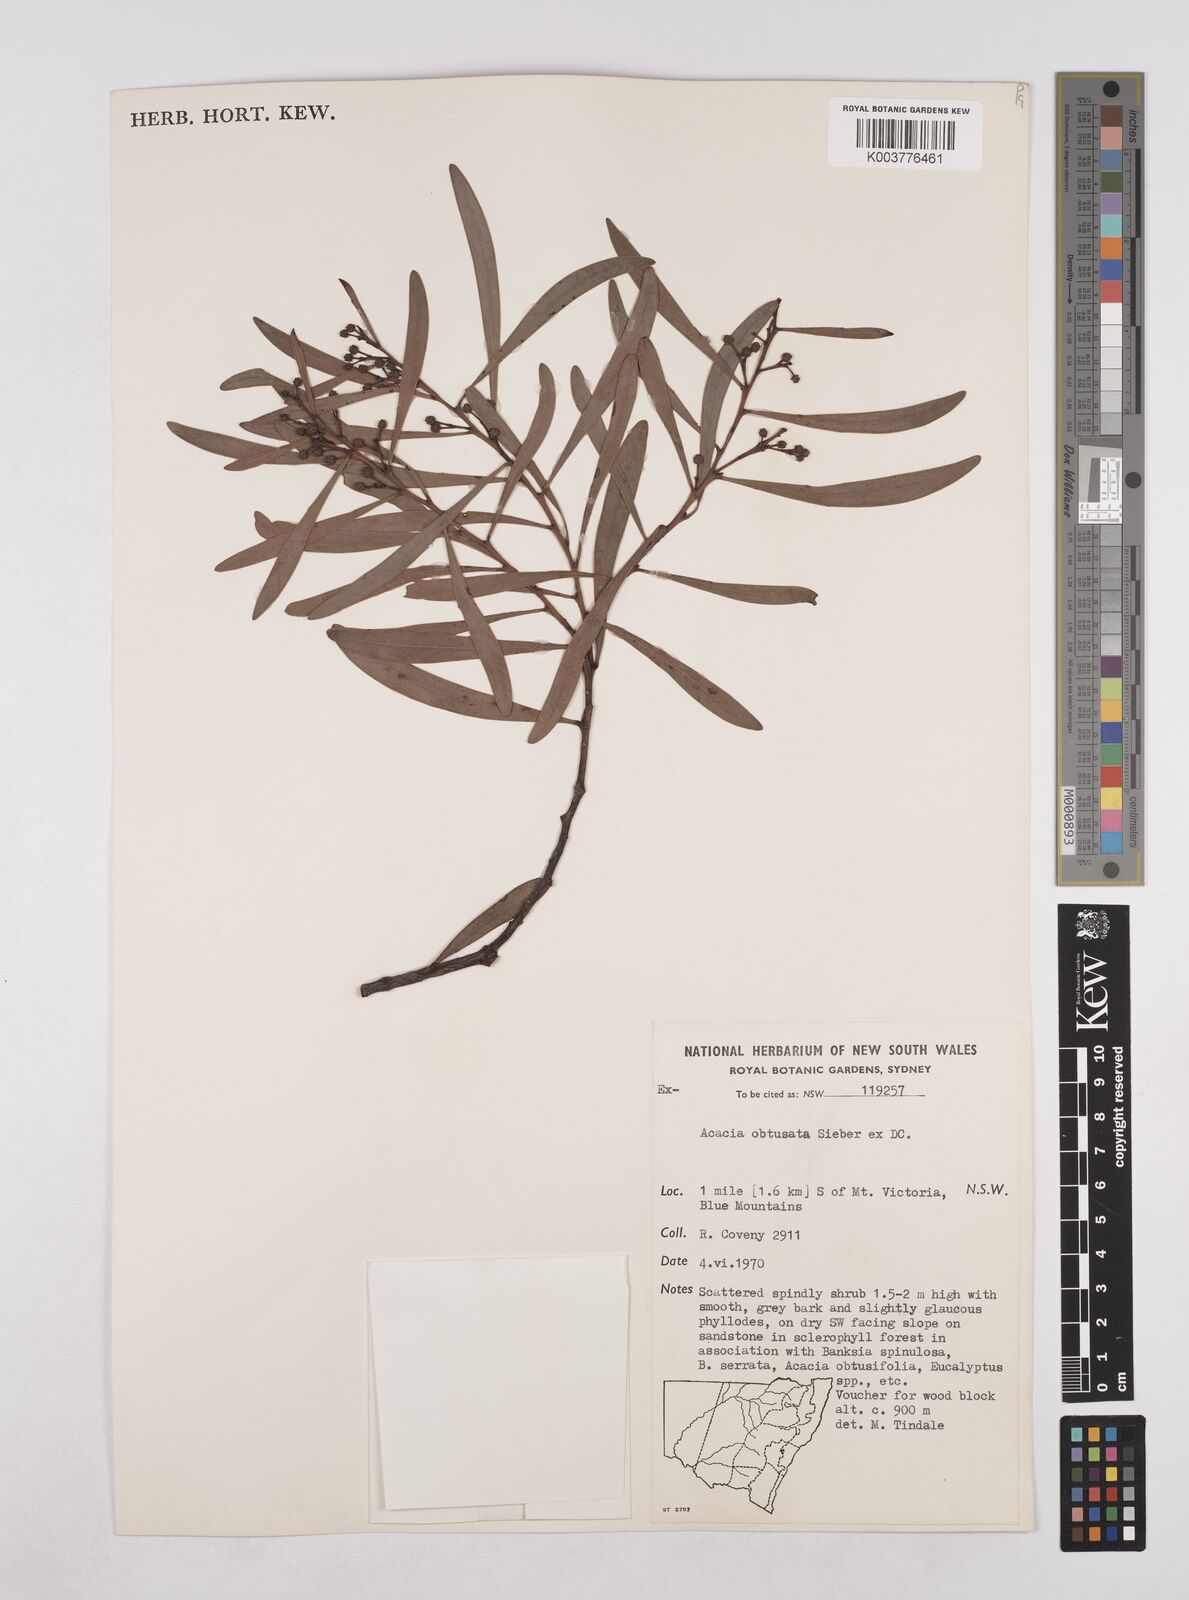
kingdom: Plantae
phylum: Tracheophyta
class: Magnoliopsida
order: Fabales
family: Fabaceae
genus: Acacia
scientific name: Acacia obtusata
